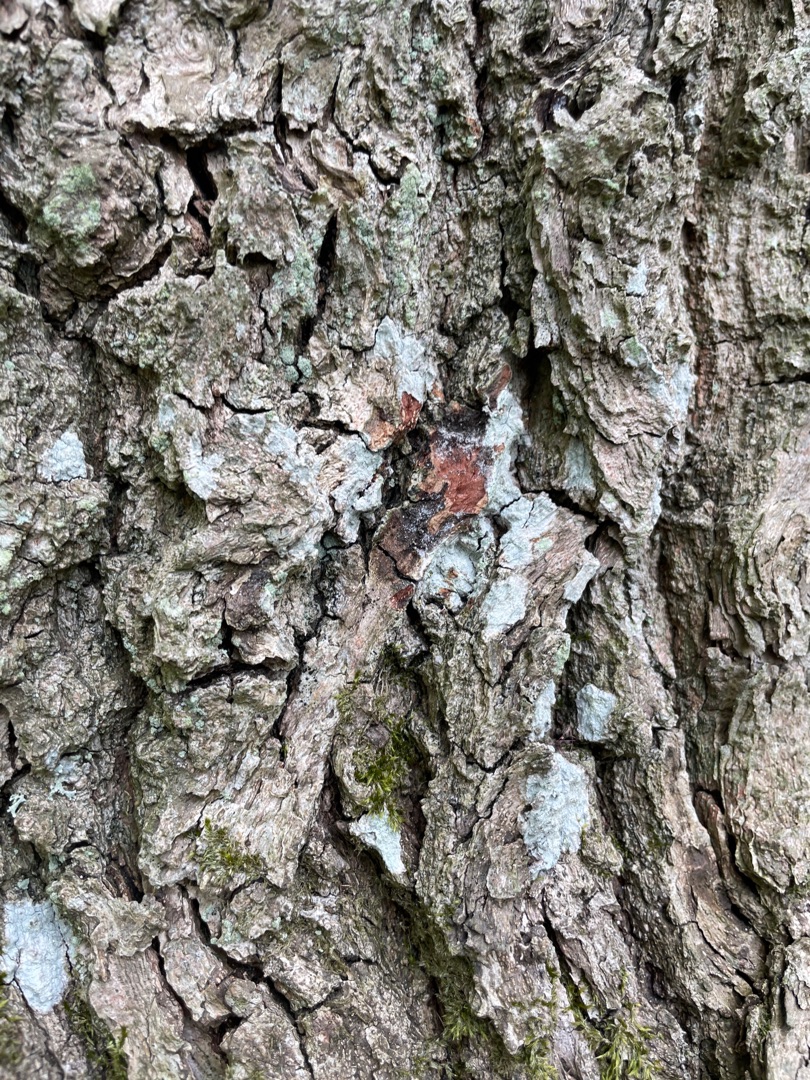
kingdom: Fungi
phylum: Ascomycota
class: Lecanoromycetes
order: Ostropales
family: Phlyctidaceae
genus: Phlyctis
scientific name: Phlyctis argena
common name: Almindelig sølvlav
